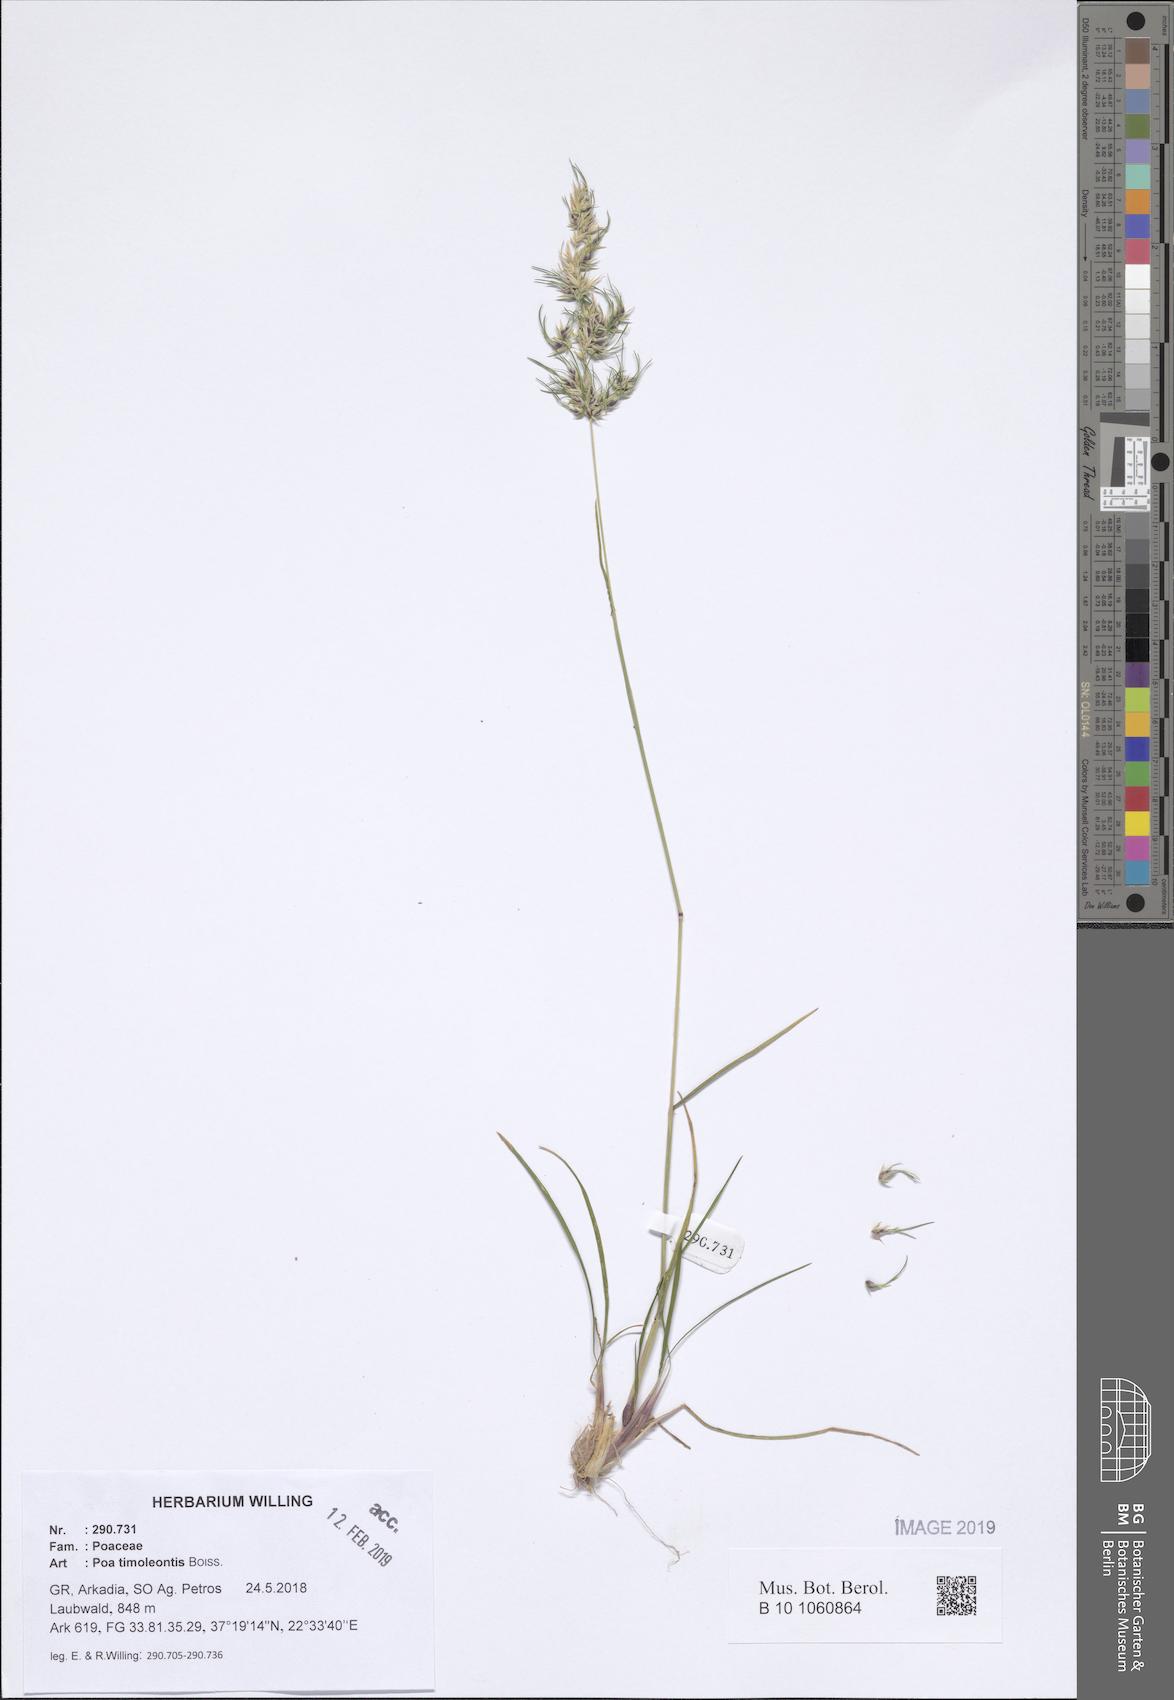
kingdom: Plantae
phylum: Tracheophyta
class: Liliopsida
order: Poales
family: Poaceae
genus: Poa
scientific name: Poa timoleontis
